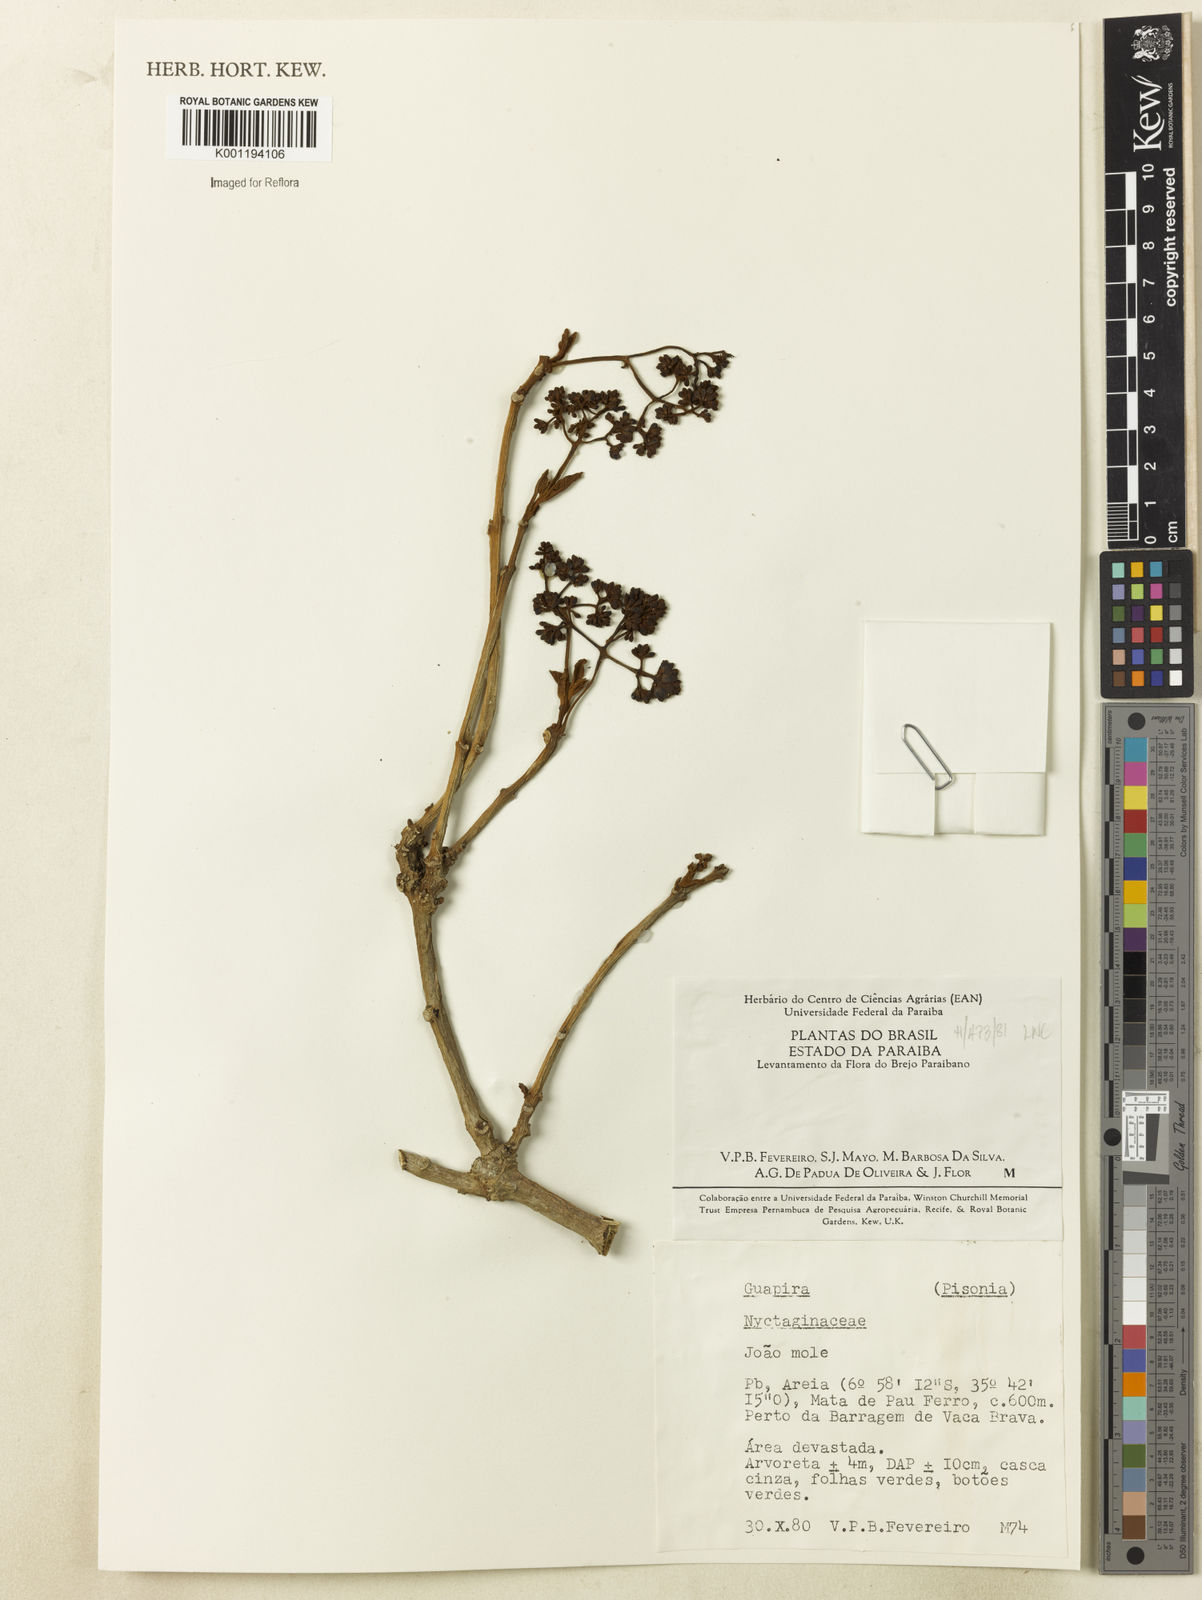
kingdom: Plantae
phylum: Tracheophyta
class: Magnoliopsida
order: Caryophyllales
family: Nyctaginaceae
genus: Guapira
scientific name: Guapira
